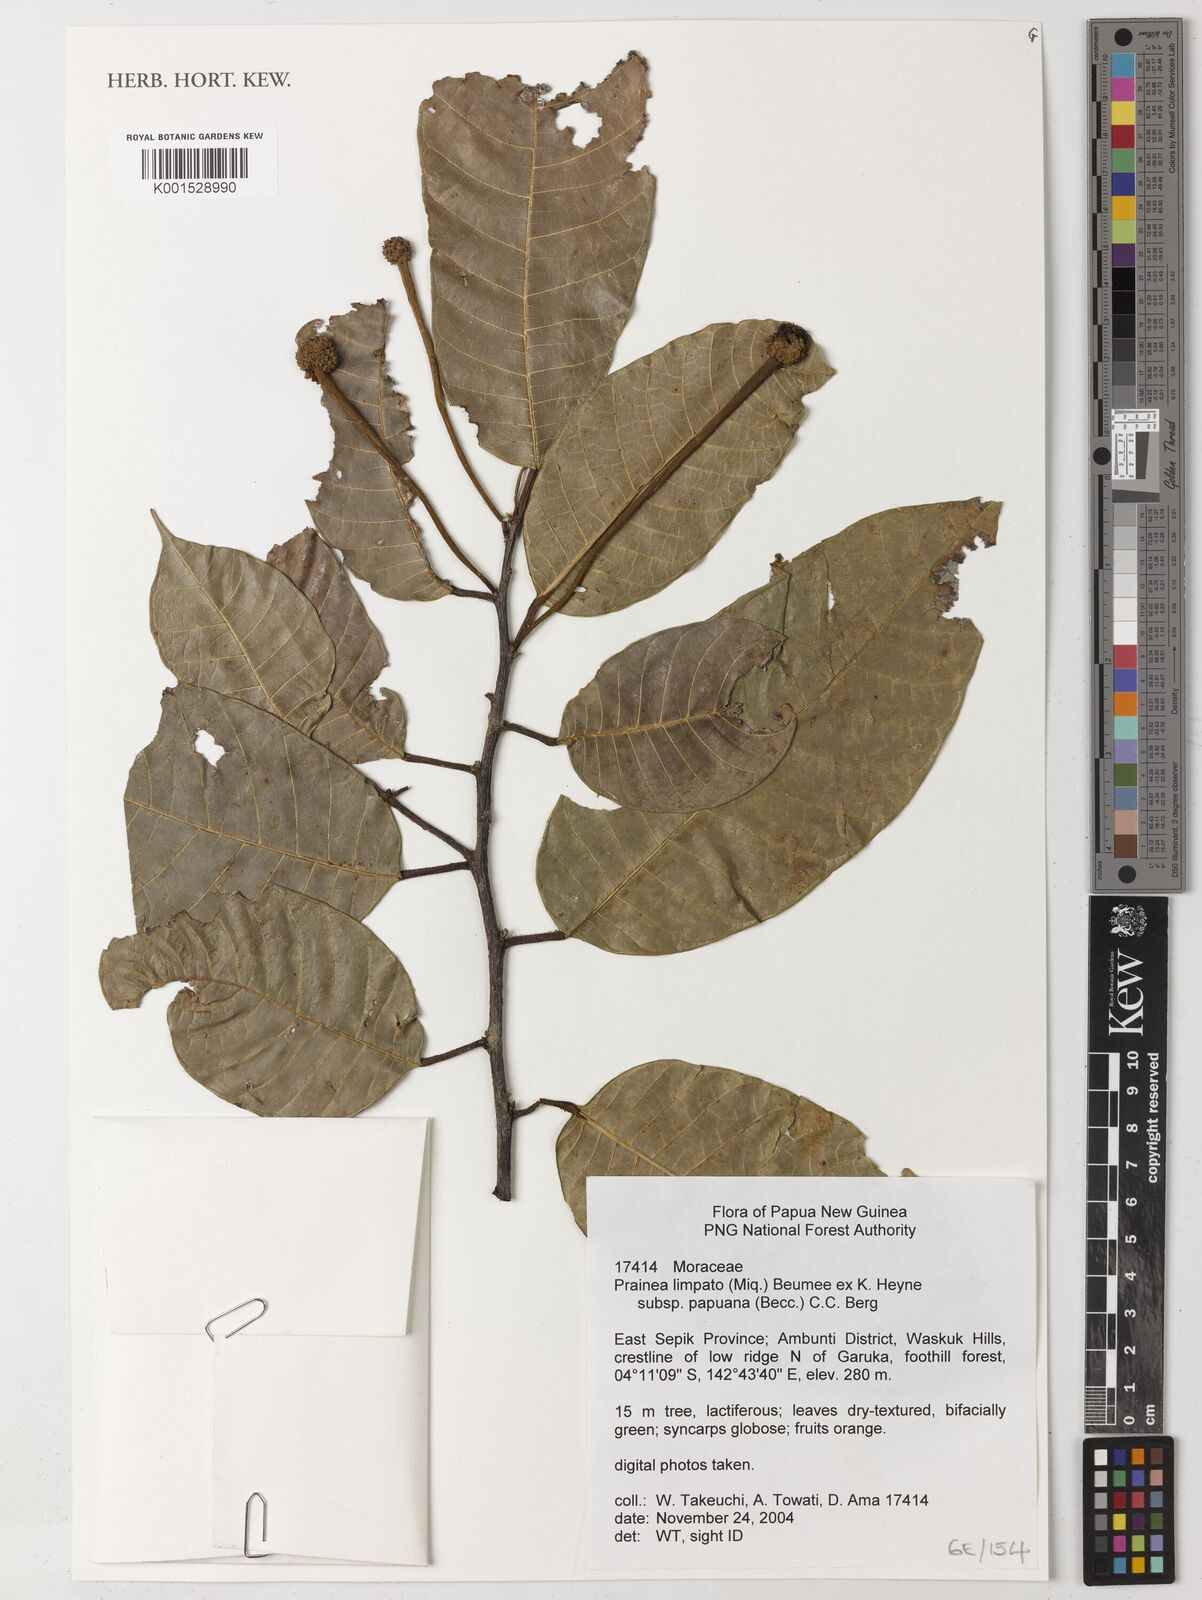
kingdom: Plantae
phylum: Tracheophyta
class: Magnoliopsida
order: Rosales
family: Moraceae
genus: Prainea
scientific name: Prainea limpato
